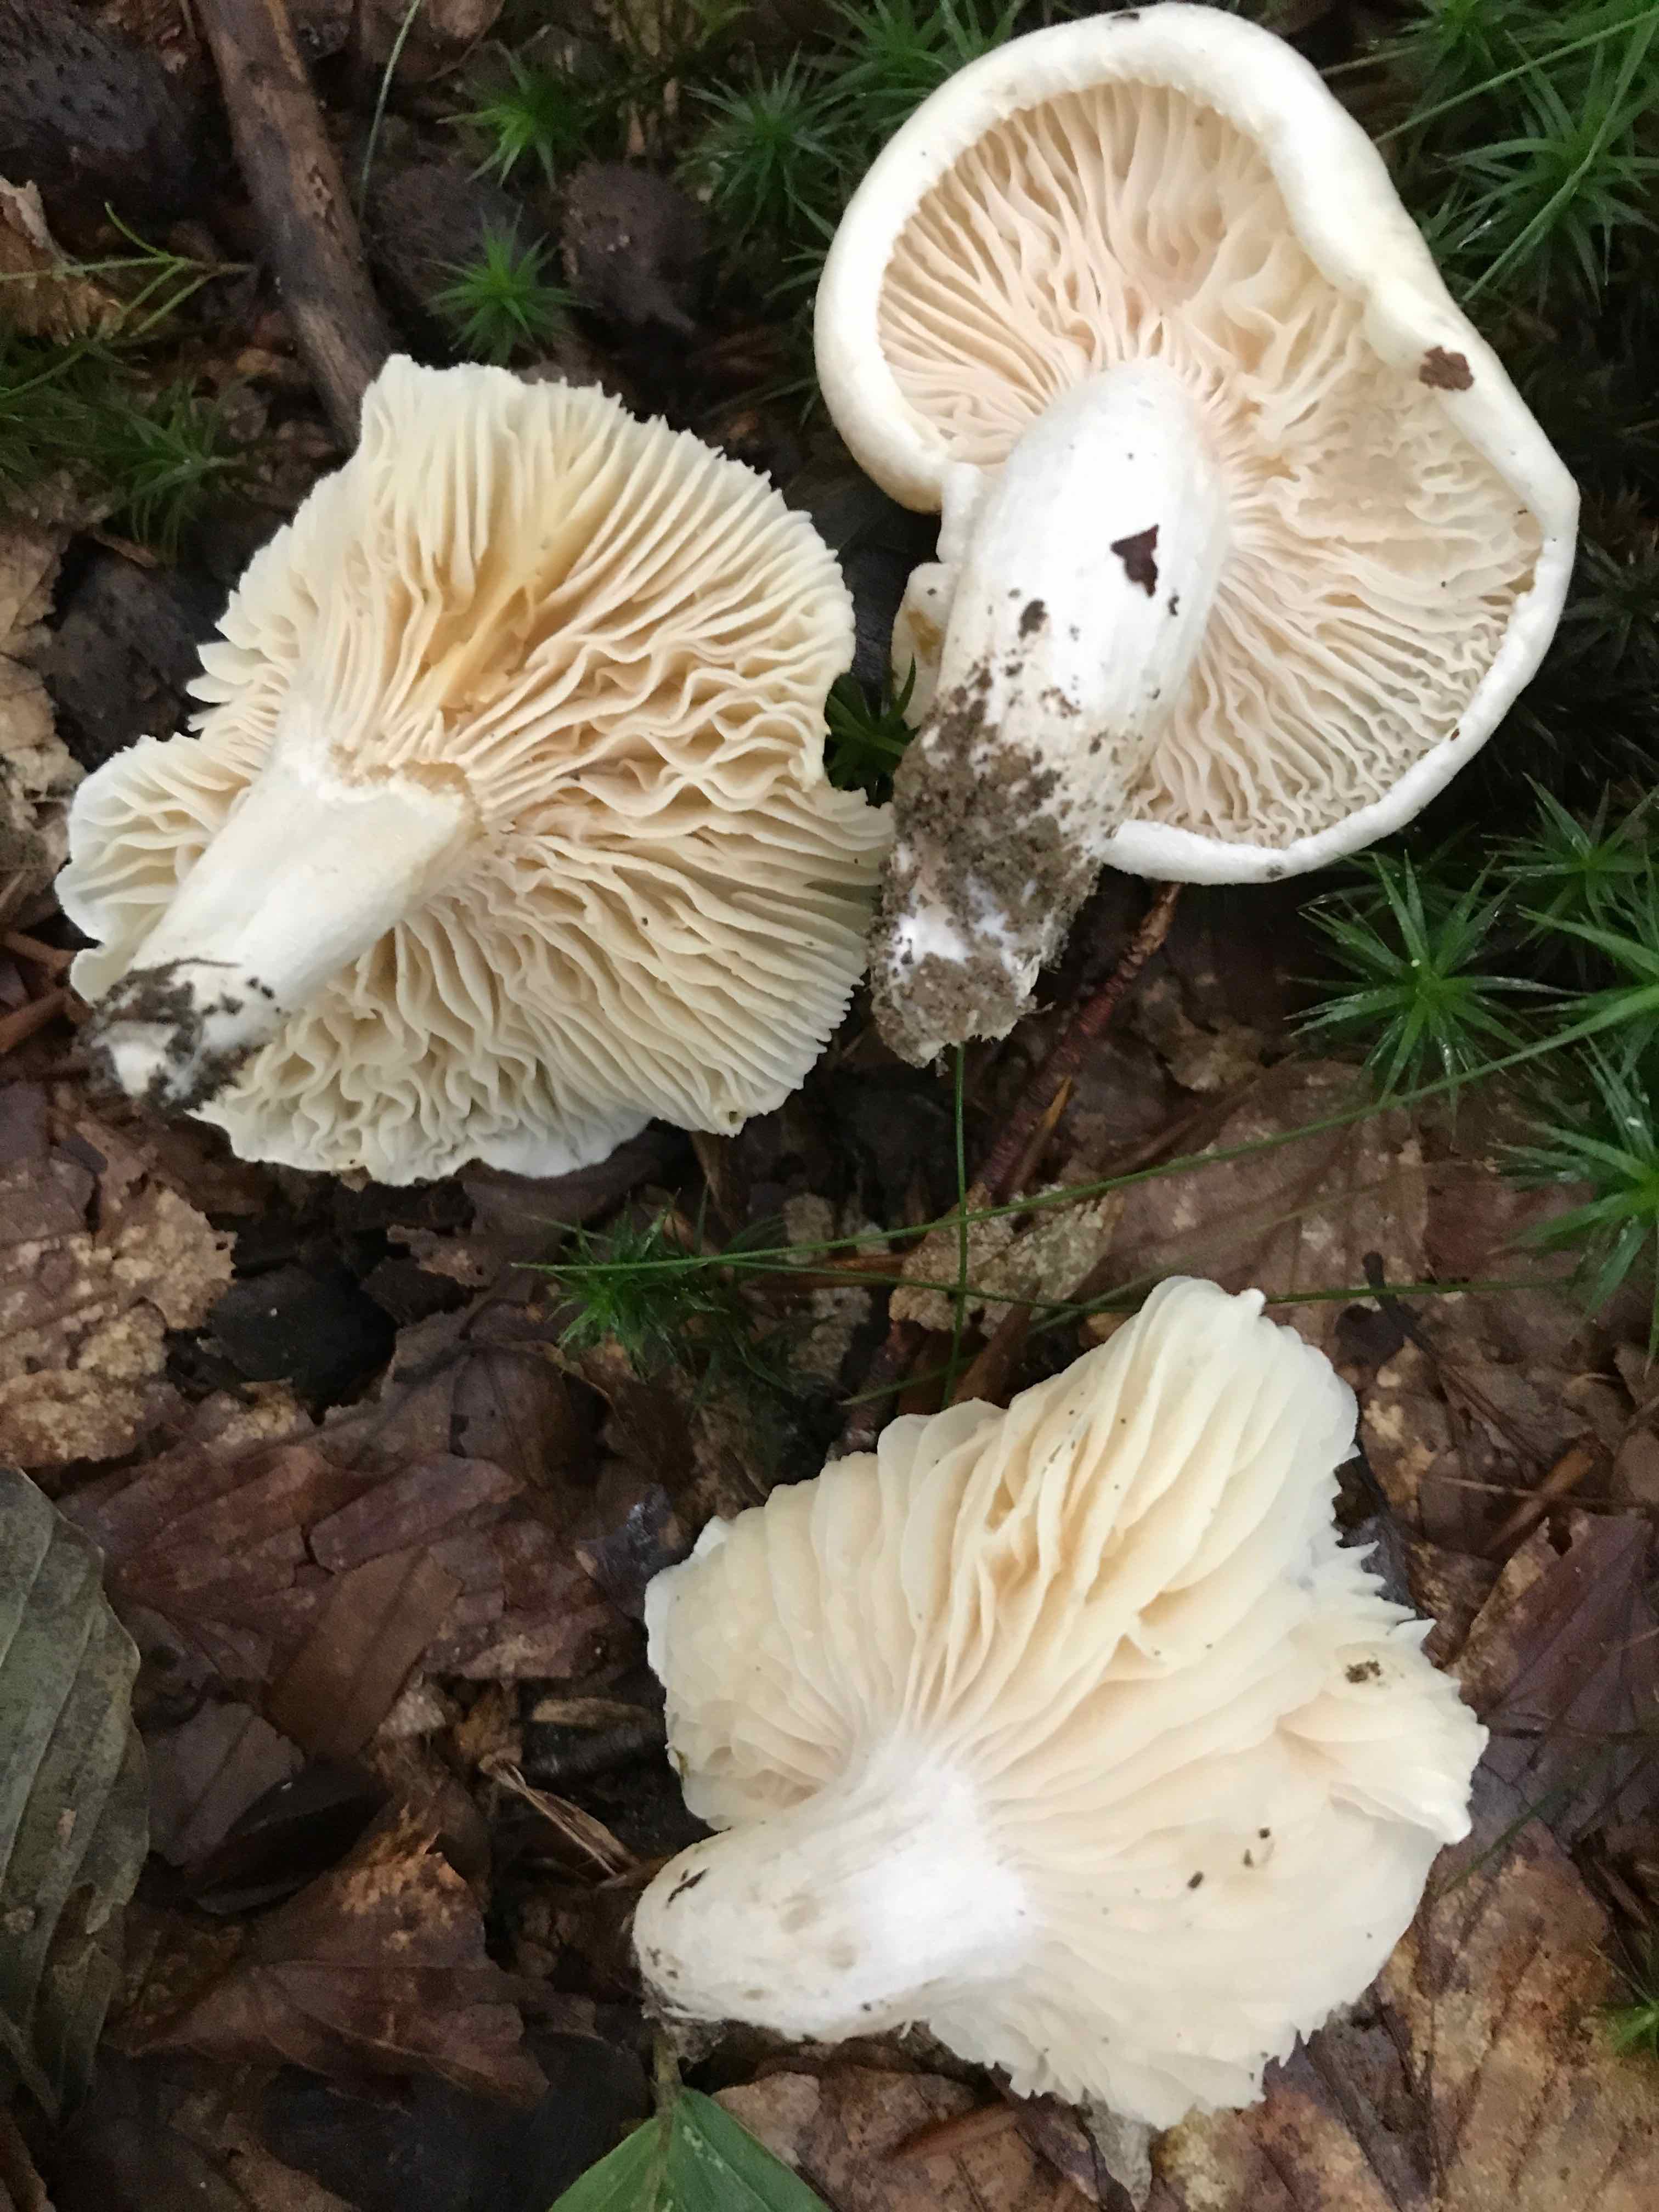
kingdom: Fungi
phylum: Basidiomycota
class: Agaricomycetes
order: Agaricales
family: Hygrophoraceae
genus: Hygrophorus
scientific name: Hygrophorus penarius
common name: spiselig sneglehat
